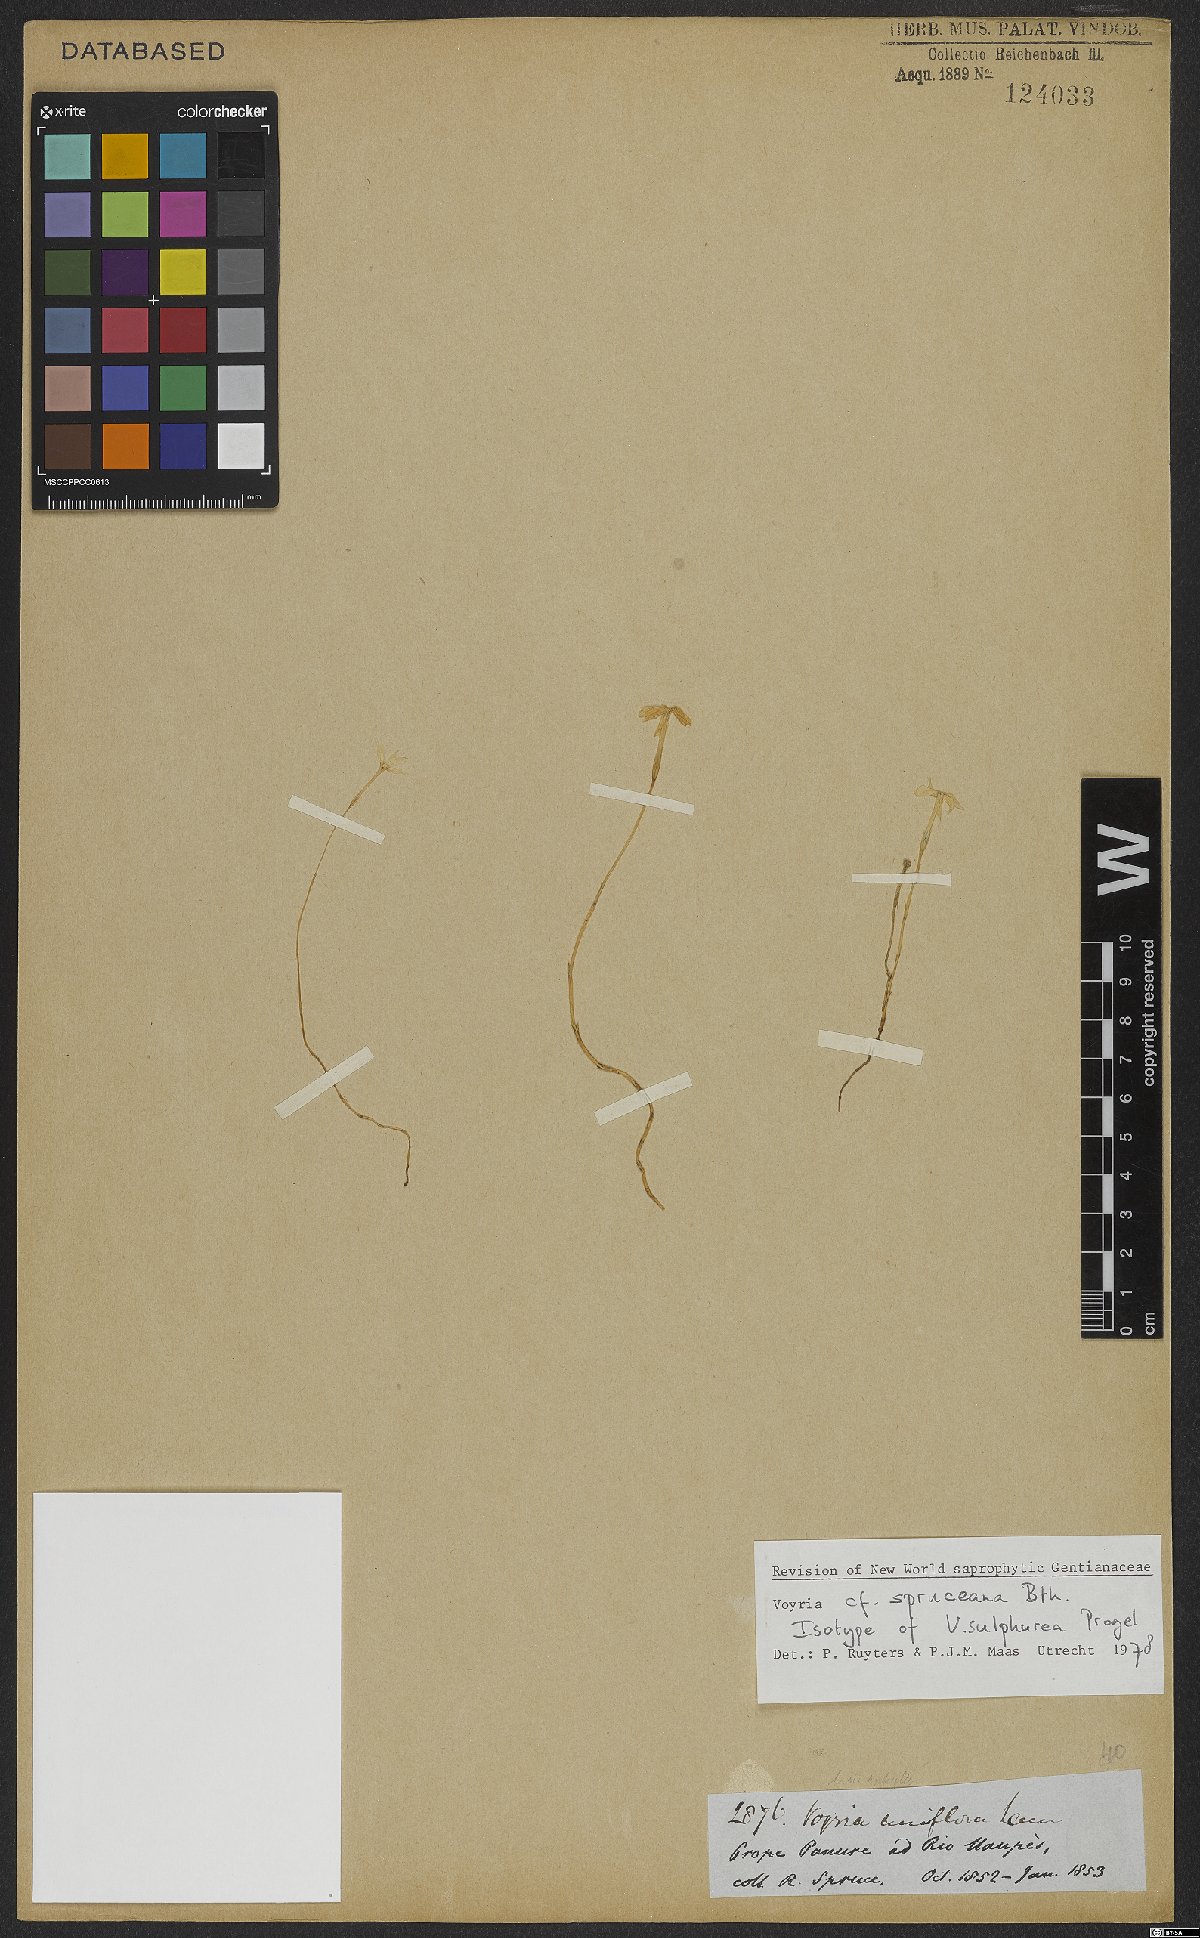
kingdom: Plantae
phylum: Tracheophyta
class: Magnoliopsida
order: Gentianales
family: Gentianaceae
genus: Voyria
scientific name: Voyria spruceana
